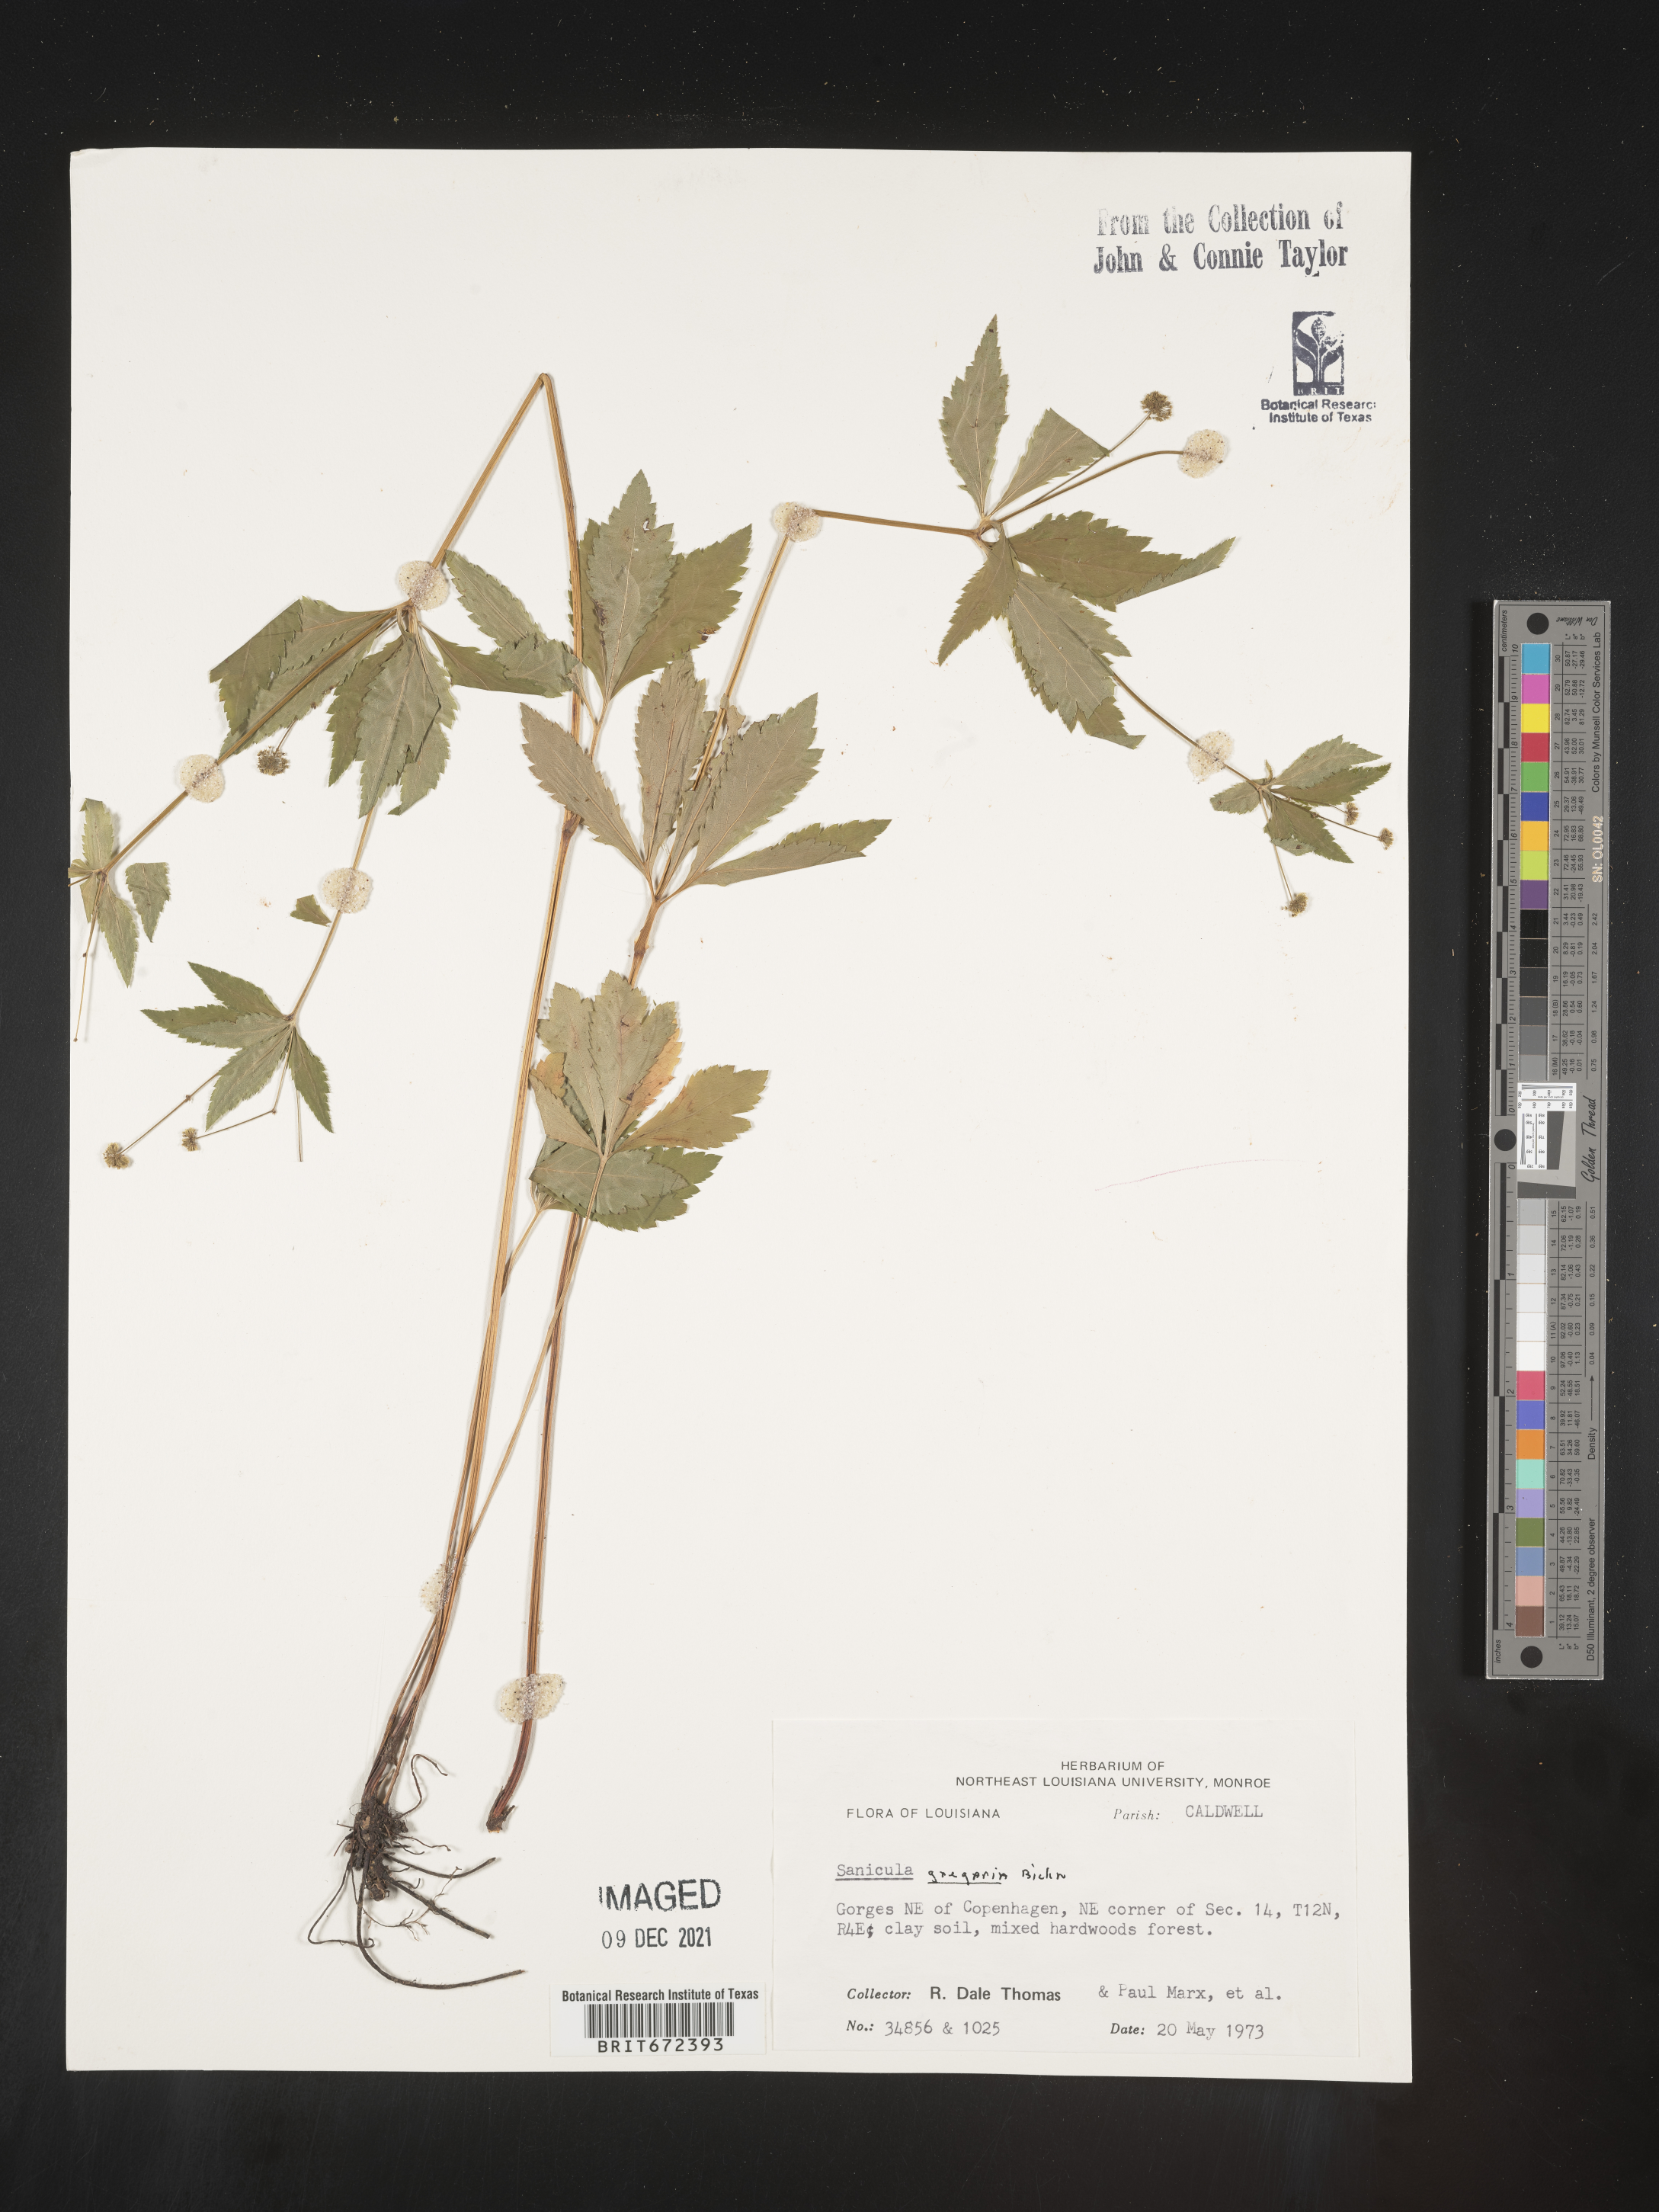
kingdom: Plantae
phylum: Tracheophyta
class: Magnoliopsida
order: Apiales
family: Apiaceae
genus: Sanicula
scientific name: Sanicula odorata
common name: Cluster sanicle
